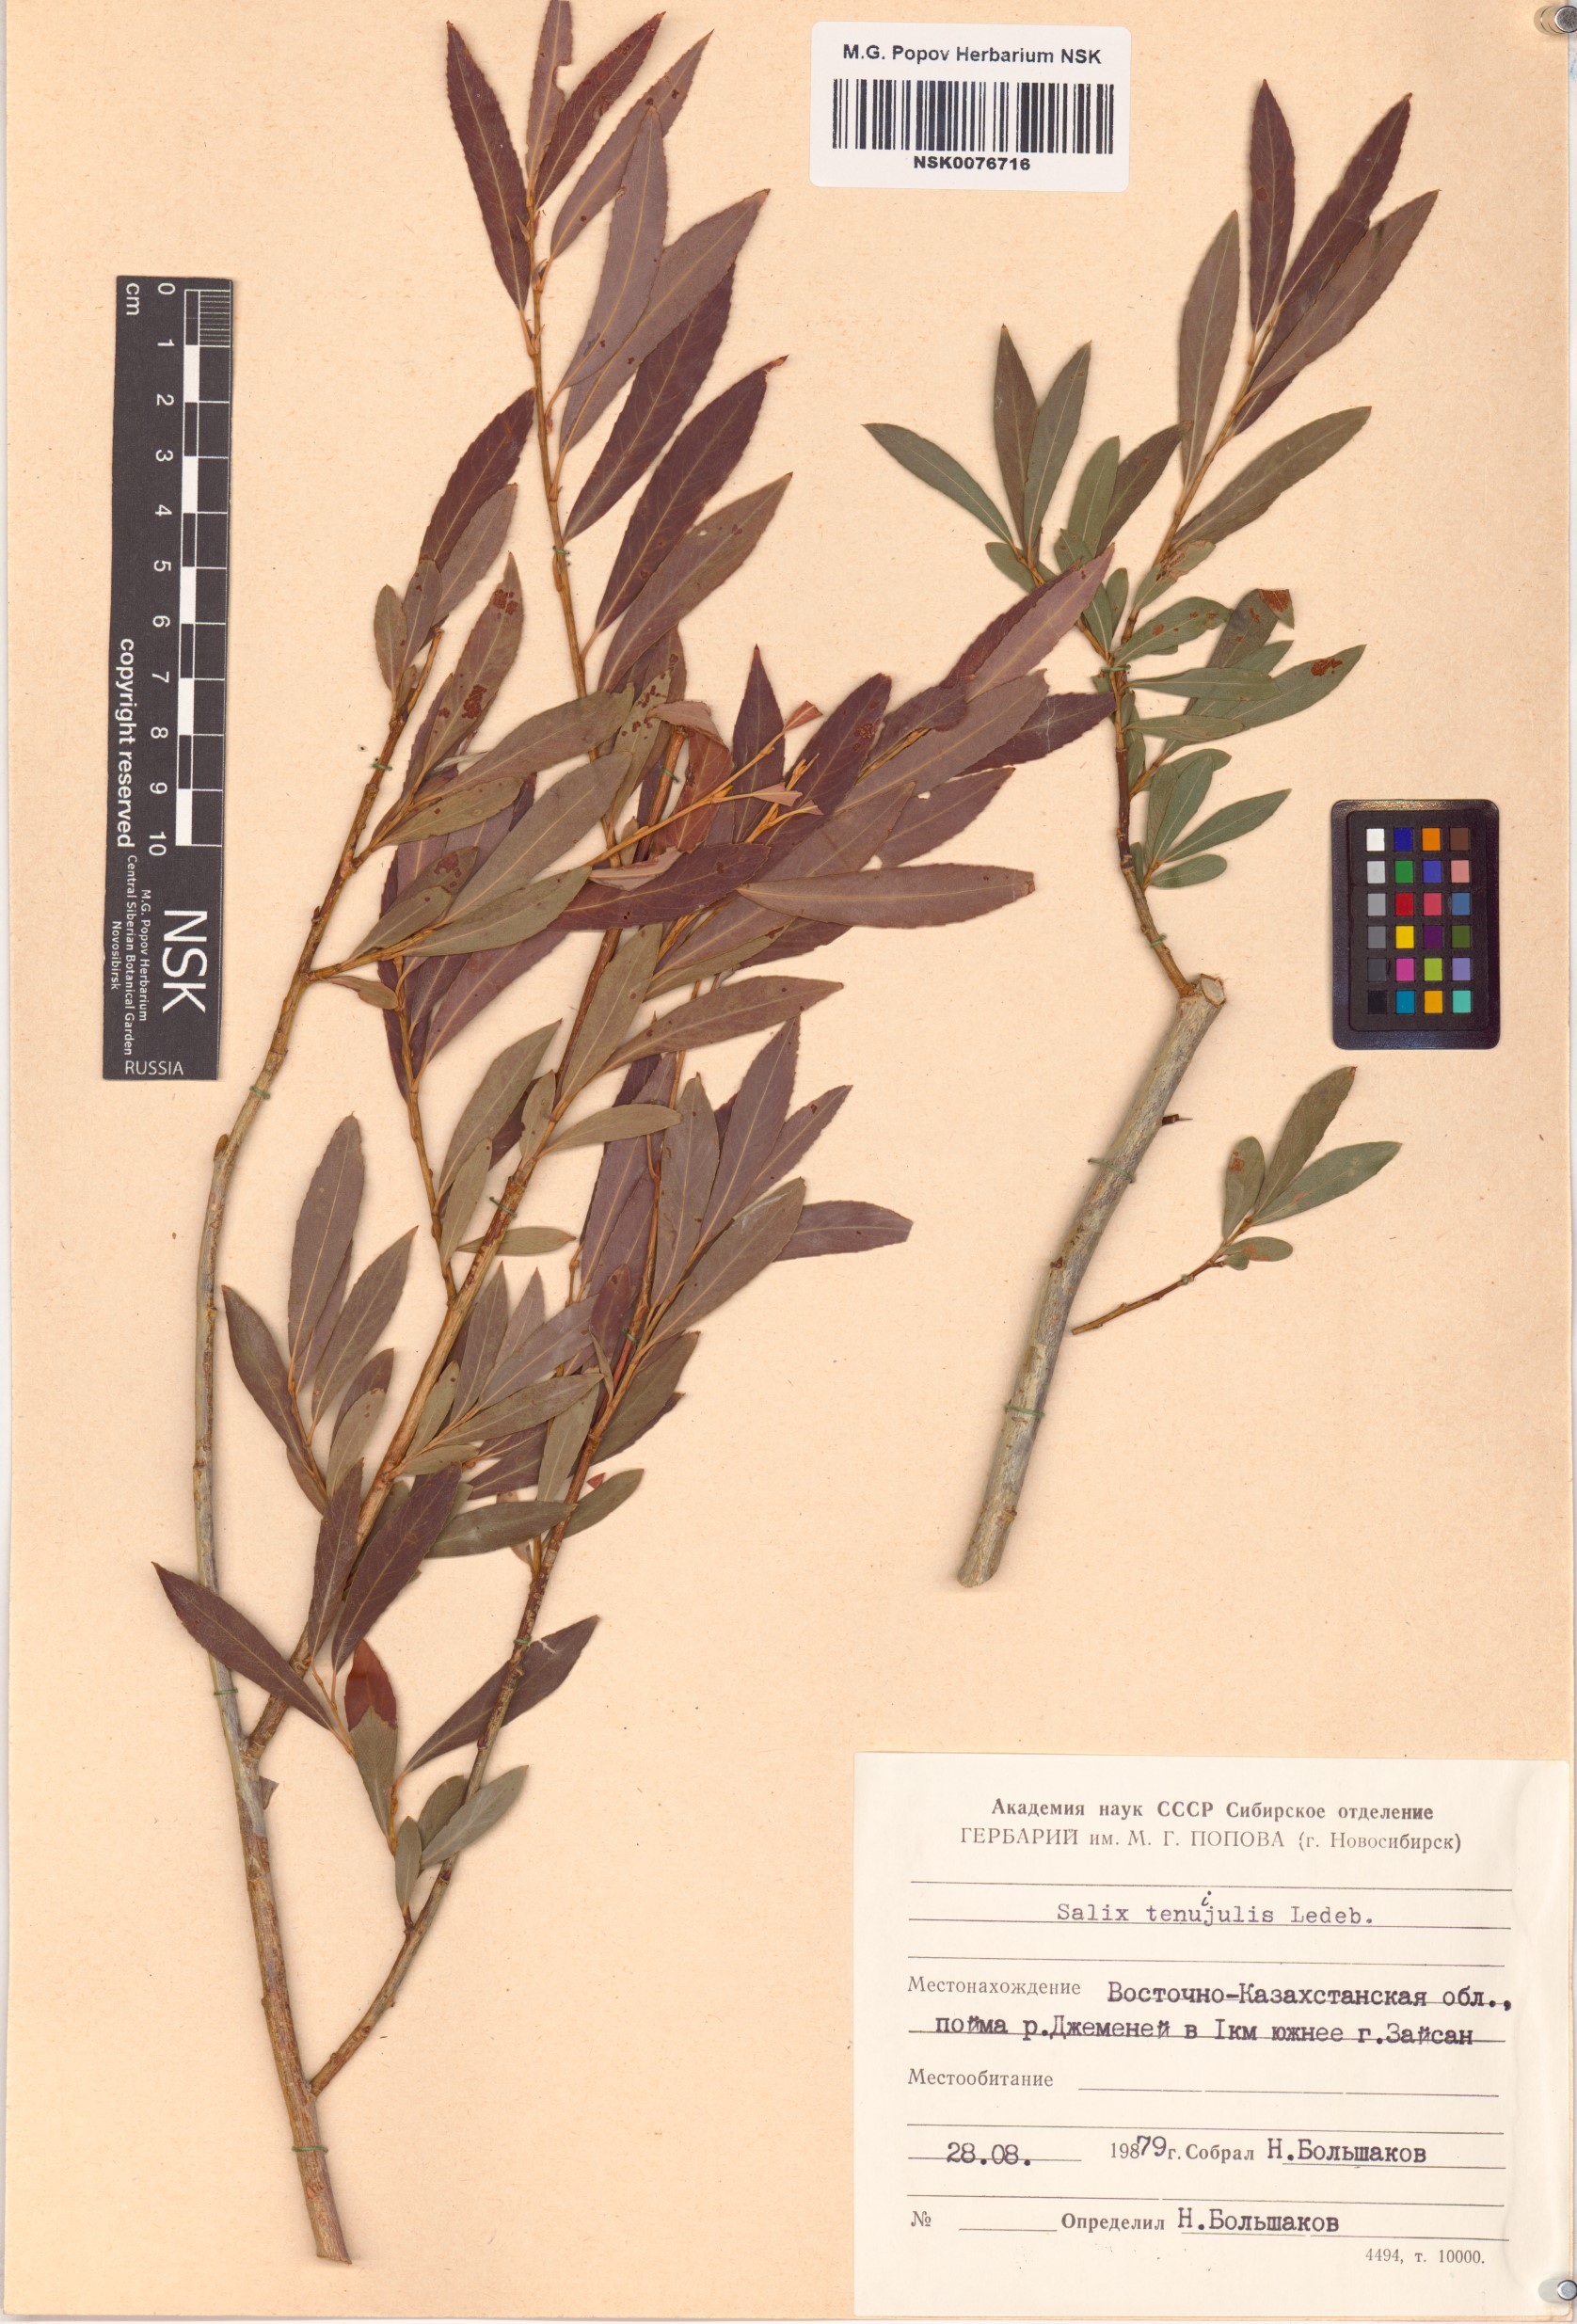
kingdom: Plantae
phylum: Tracheophyta
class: Magnoliopsida
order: Malpighiales
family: Salicaceae
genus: Salix
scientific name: Salix tenuijulis
